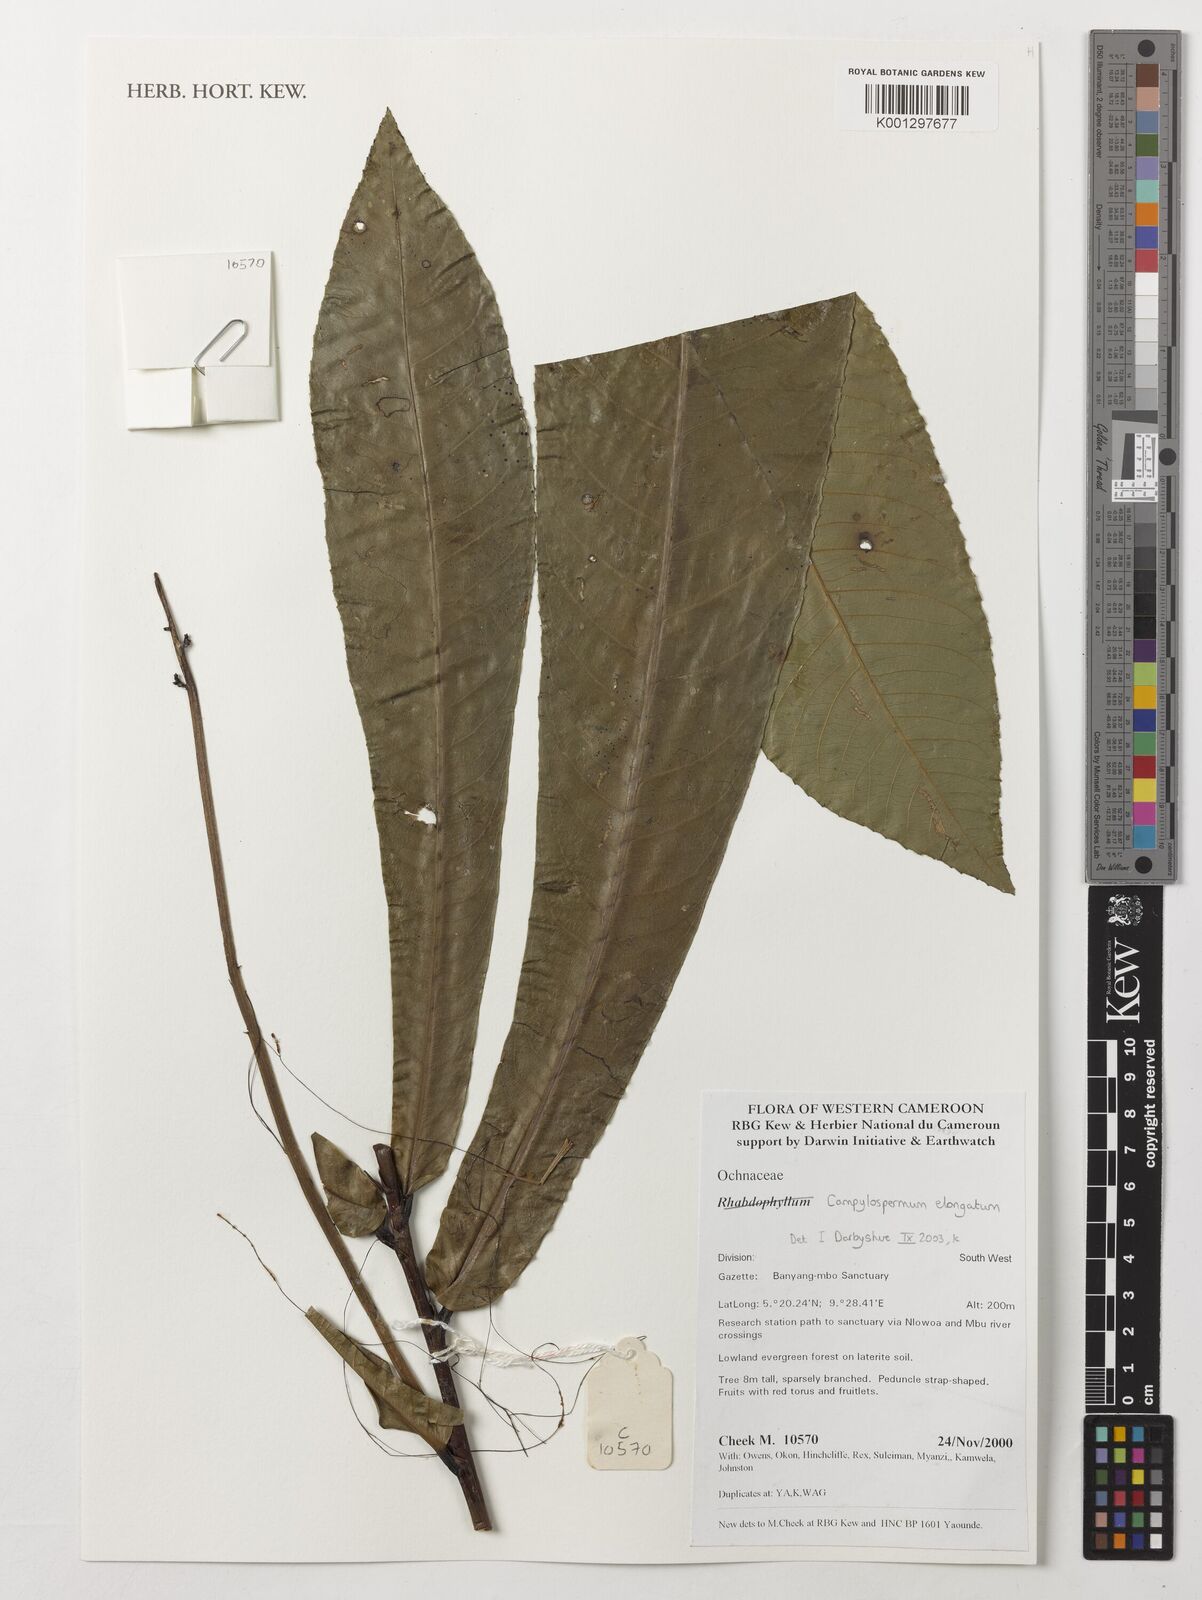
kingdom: Plantae
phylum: Tracheophyta
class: Magnoliopsida
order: Malpighiales
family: Ochnaceae
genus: Gomphia
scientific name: Gomphia elongata
